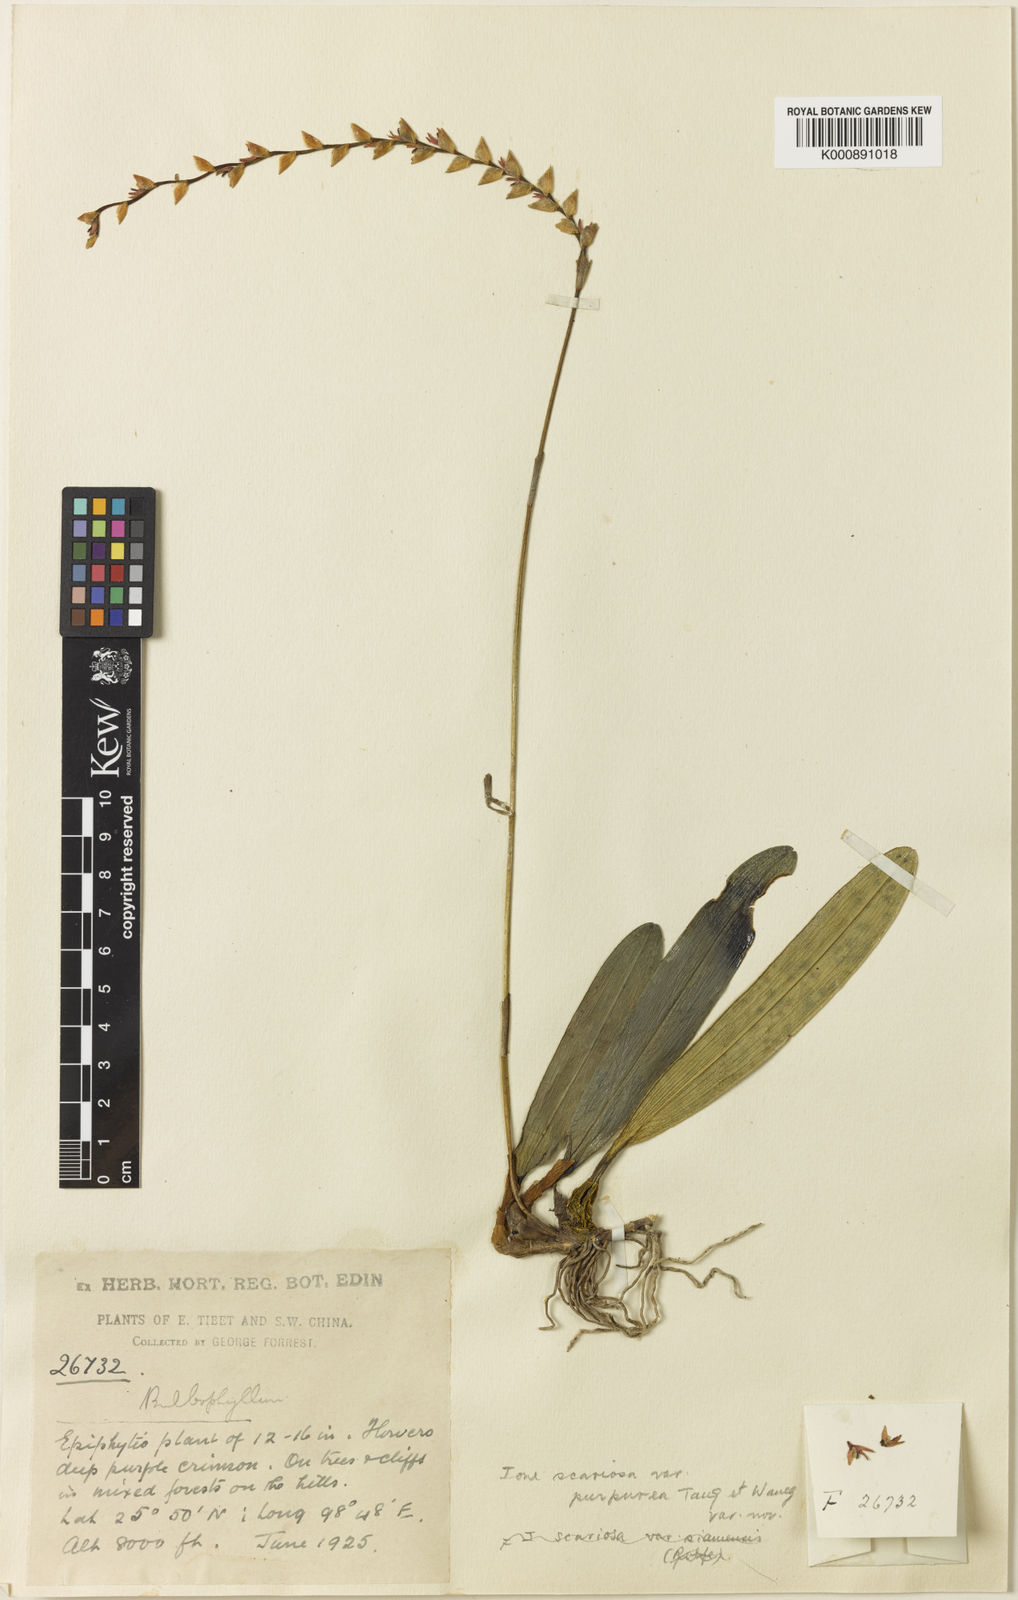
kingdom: Plantae
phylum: Tracheophyta
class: Liliopsida
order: Asparagales
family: Orchidaceae
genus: Bulbophyllum
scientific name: Bulbophyllum reptans
